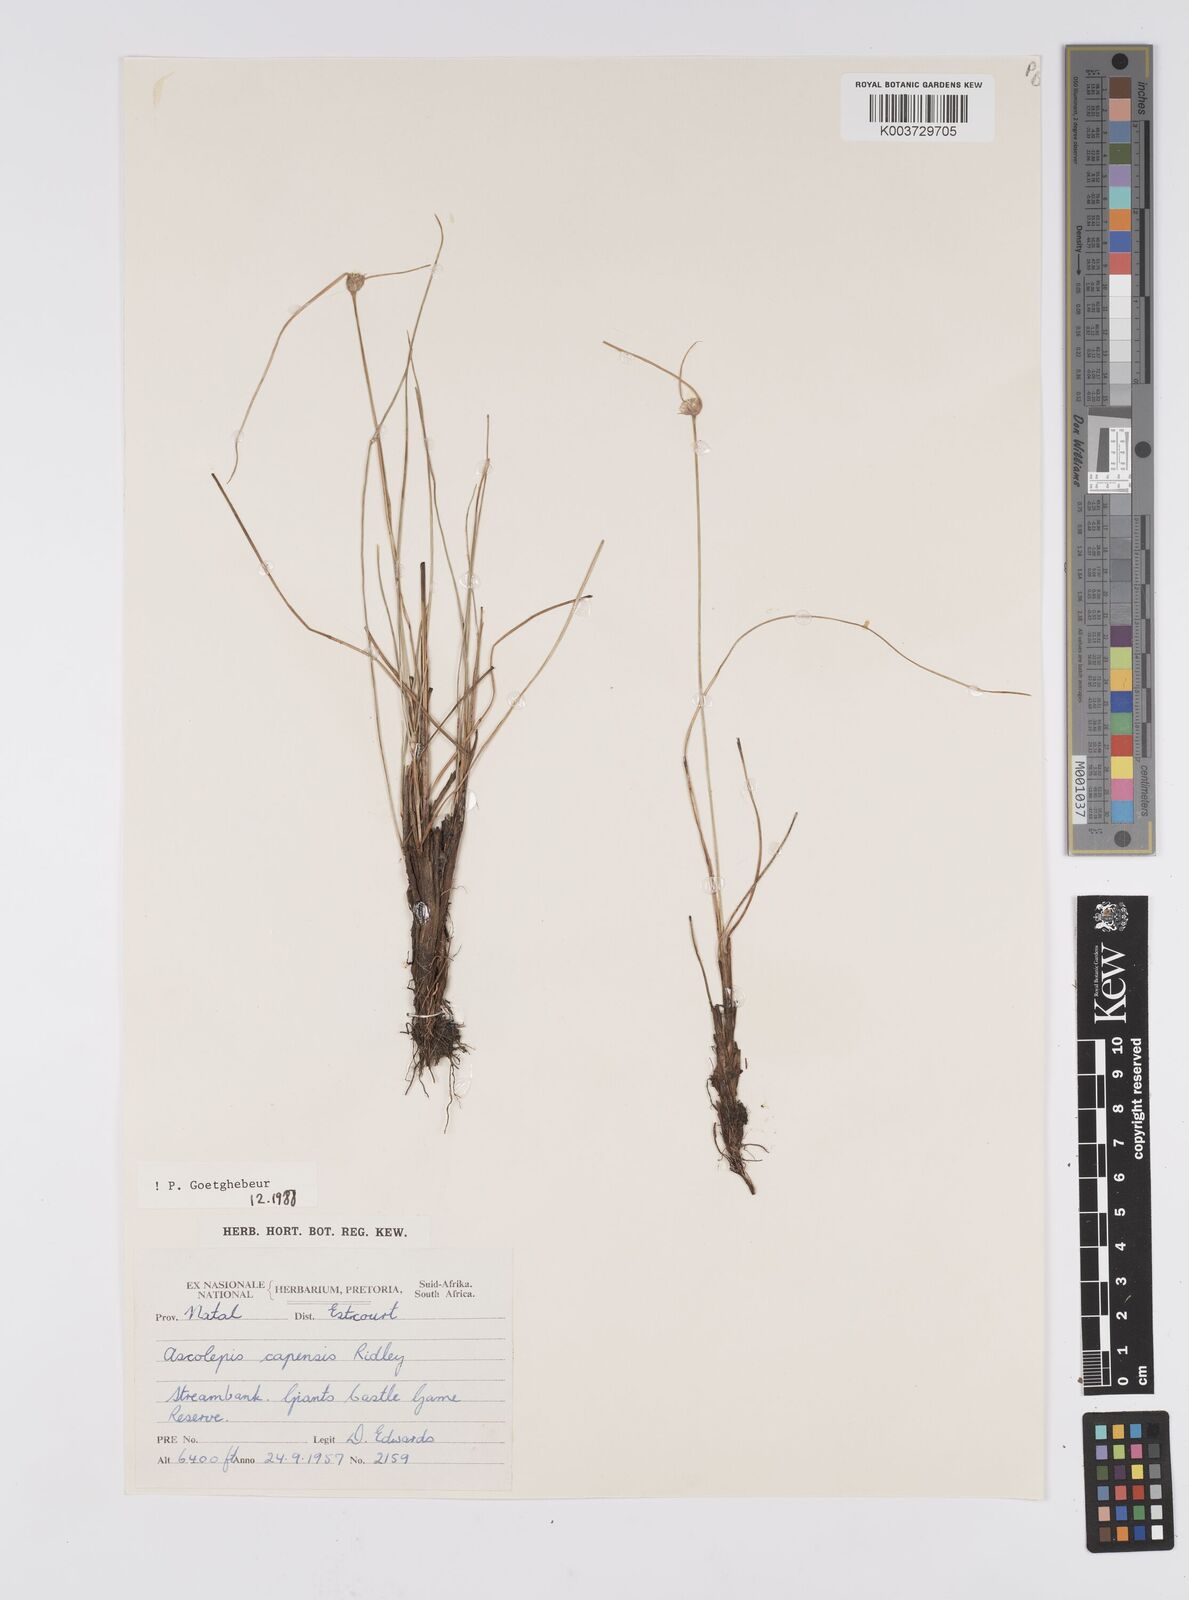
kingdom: Plantae
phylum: Tracheophyta
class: Liliopsida
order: Poales
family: Cyperaceae
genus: Cyperus
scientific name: Cyperus capensis
